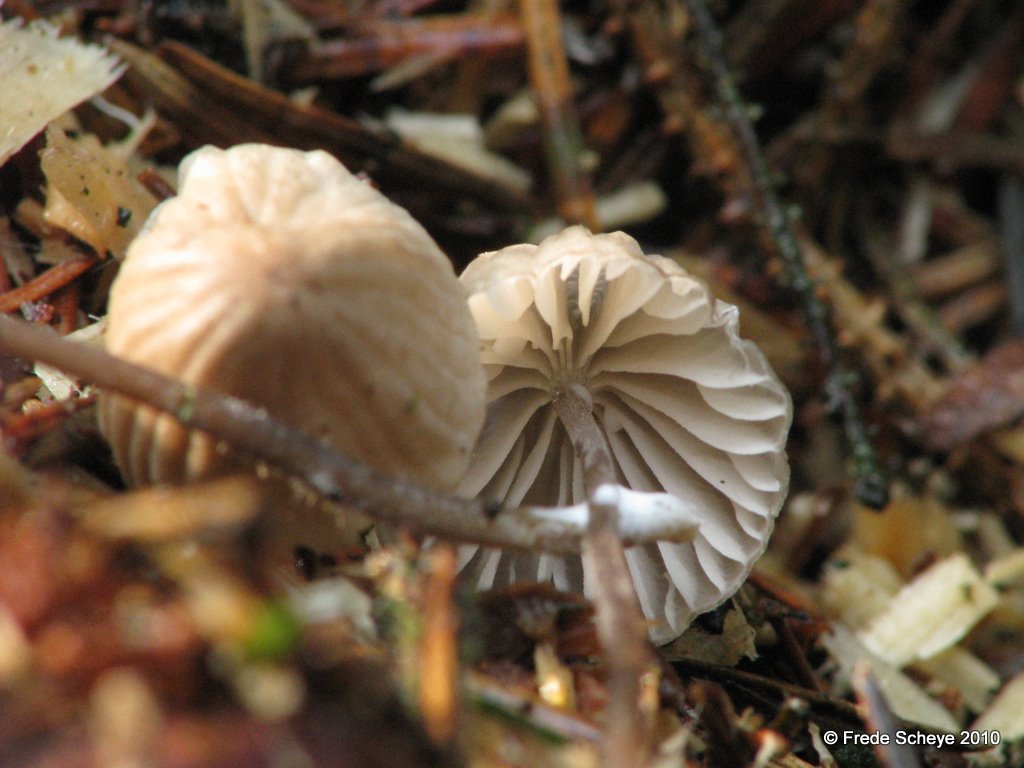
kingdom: Fungi
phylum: Basidiomycota
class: Agaricomycetes
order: Agaricales
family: Mycenaceae
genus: Mycena
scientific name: Mycena galopus
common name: hvidmælket huesvamp
